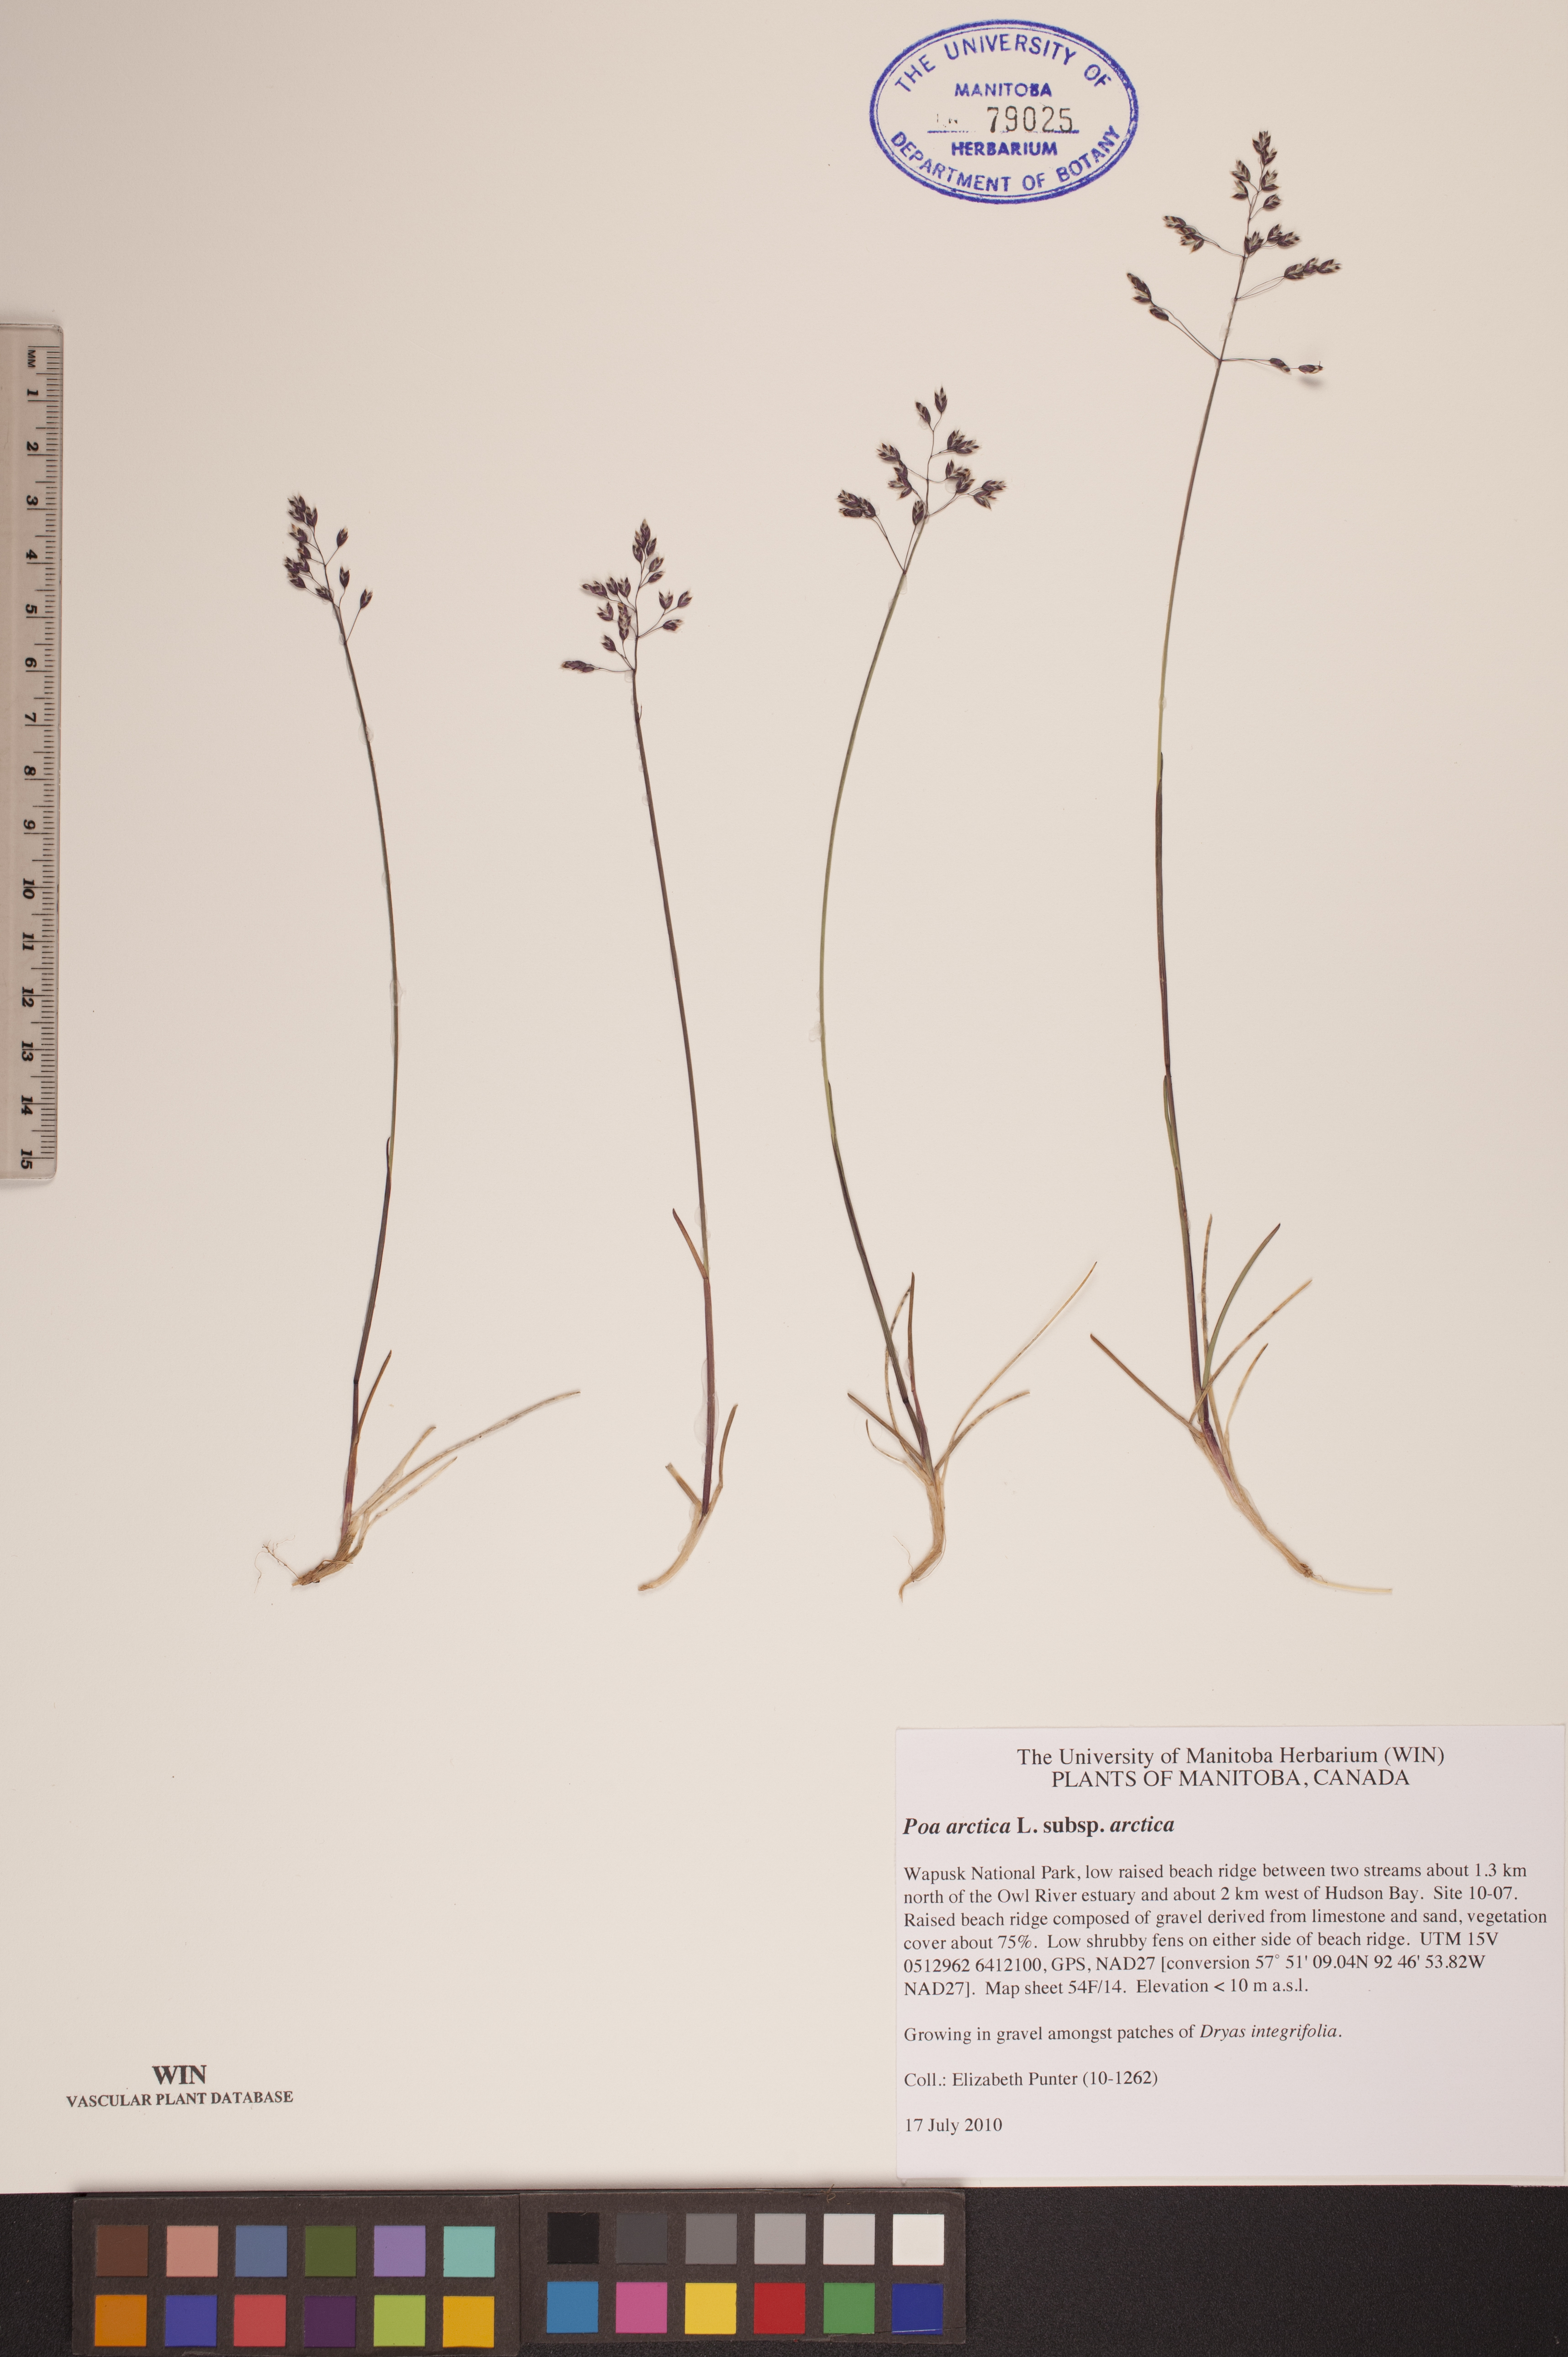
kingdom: Plantae
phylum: Tracheophyta
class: Liliopsida
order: Poales
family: Poaceae
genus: Poa
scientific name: Poa arctica
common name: Arctic bluegrass
